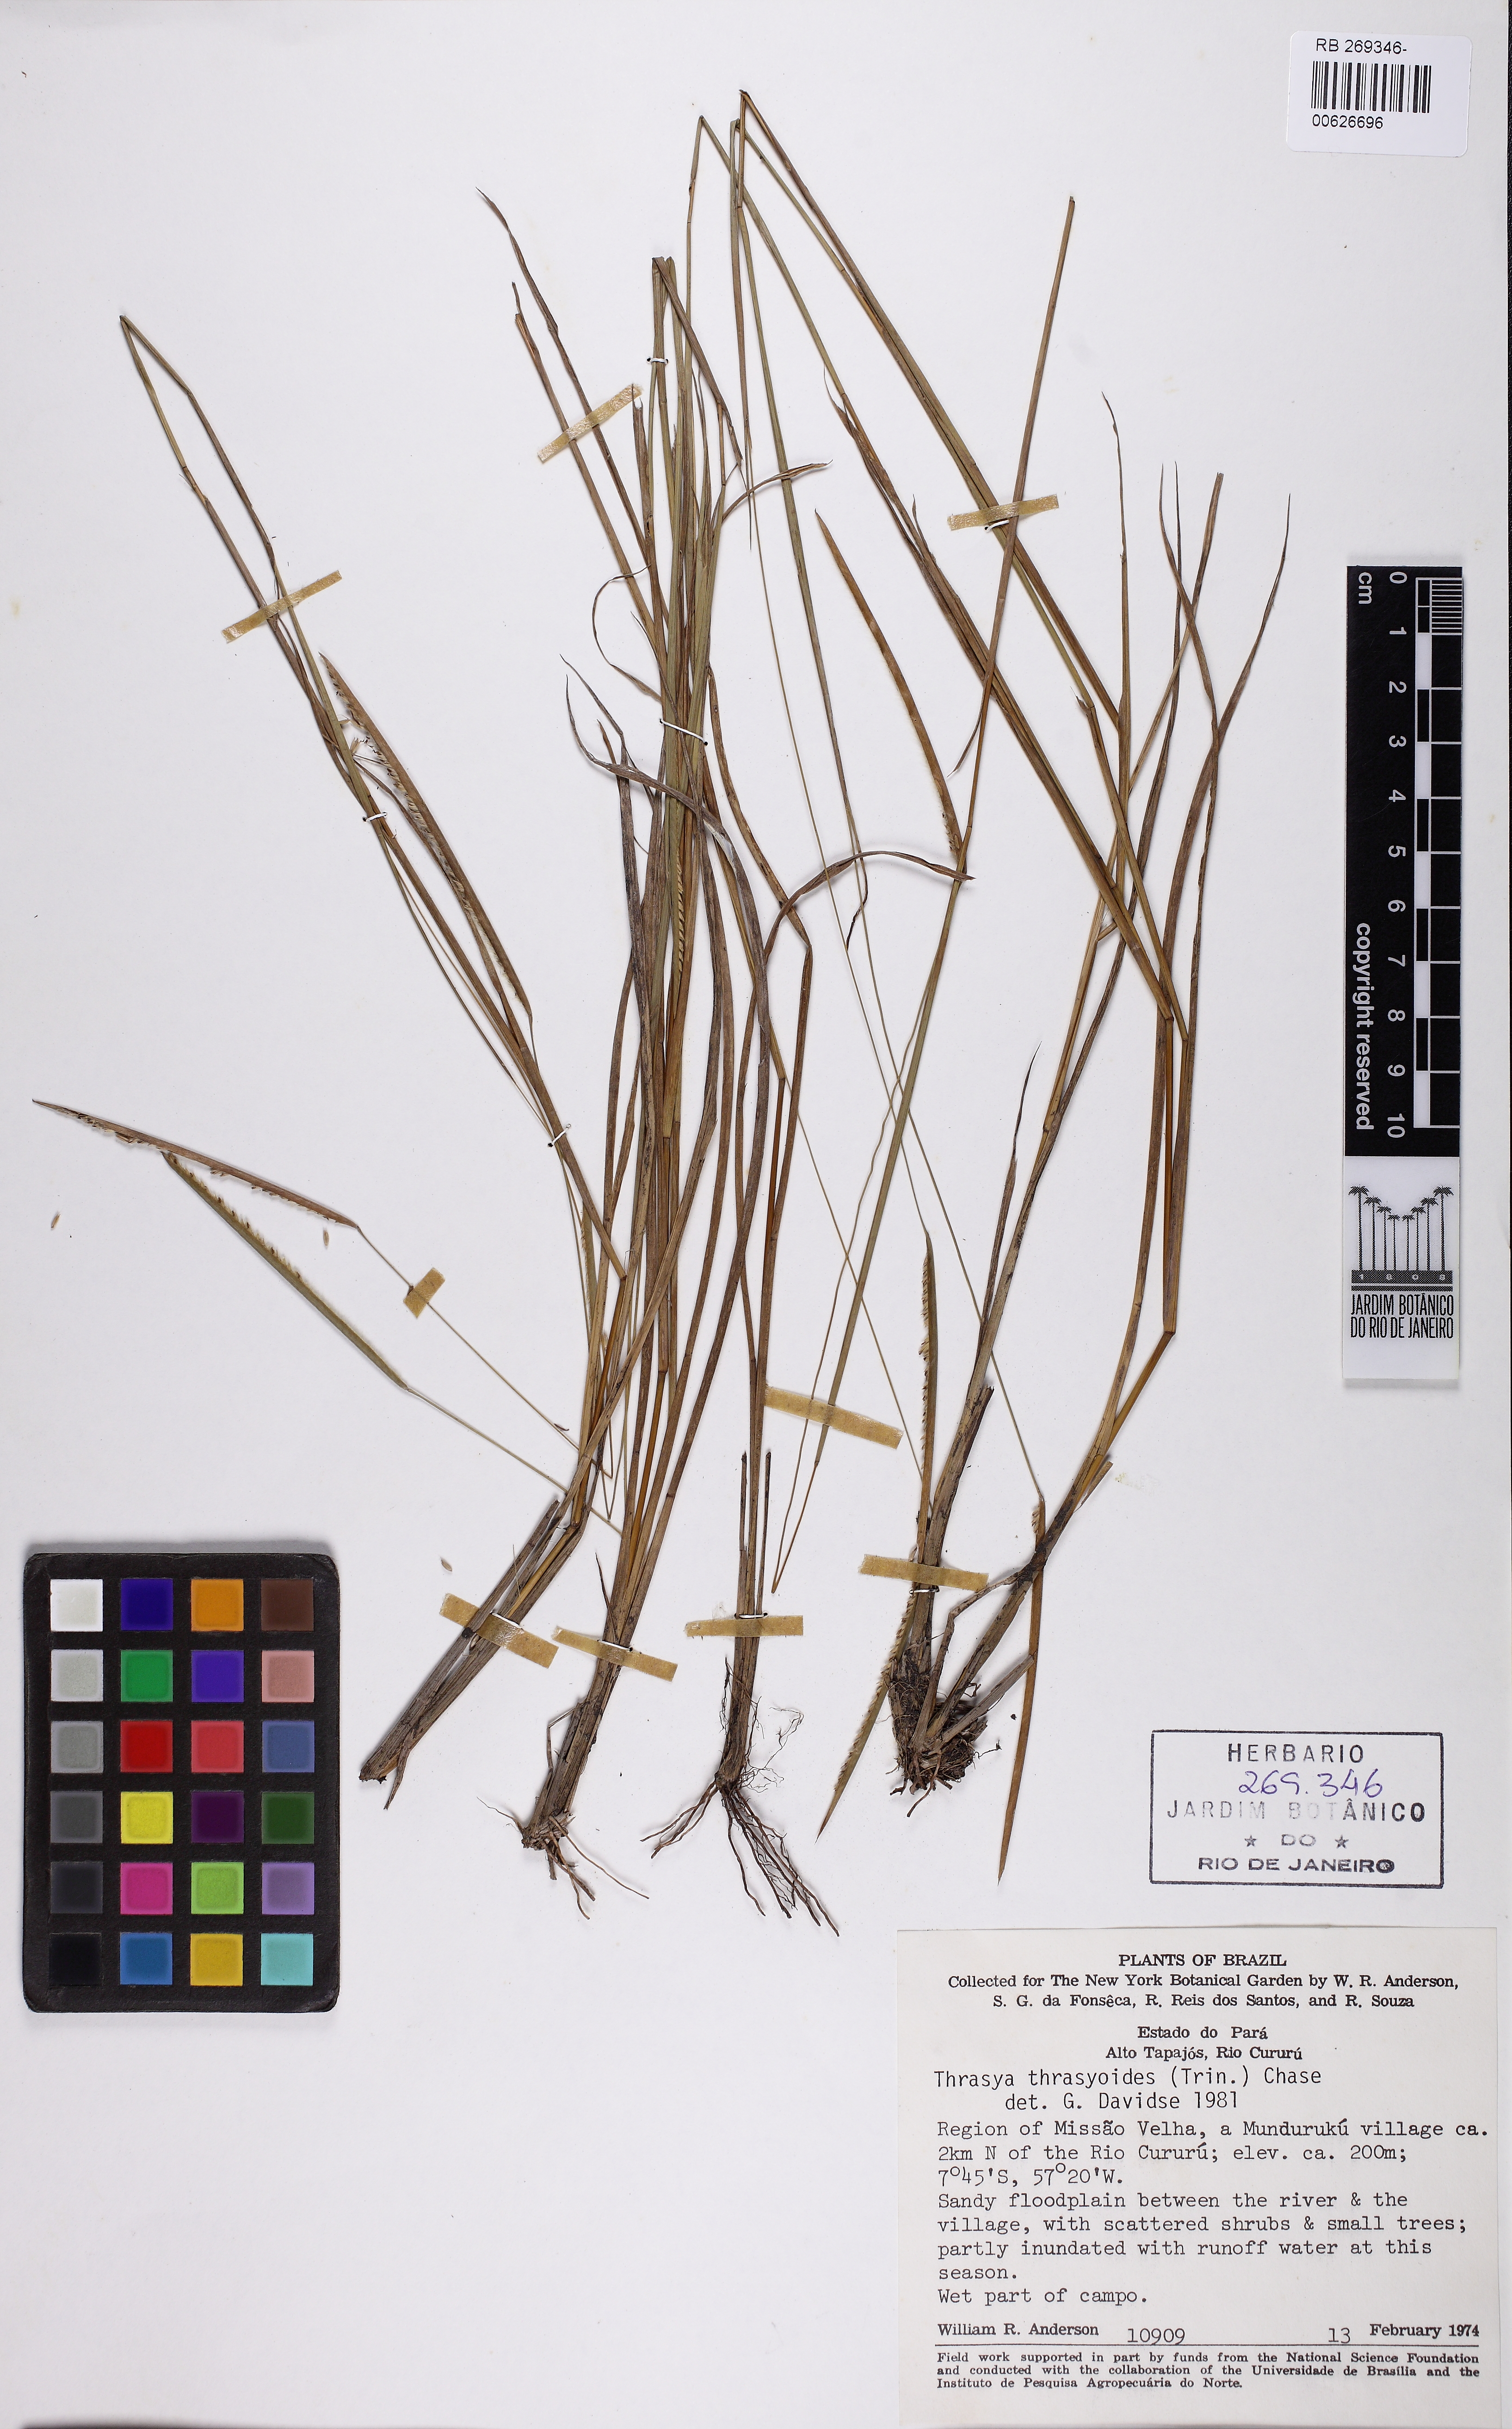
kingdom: Plantae
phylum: Tracheophyta
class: Liliopsida
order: Poales
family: Poaceae
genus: Paspalum
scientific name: Paspalum thrasyoides
